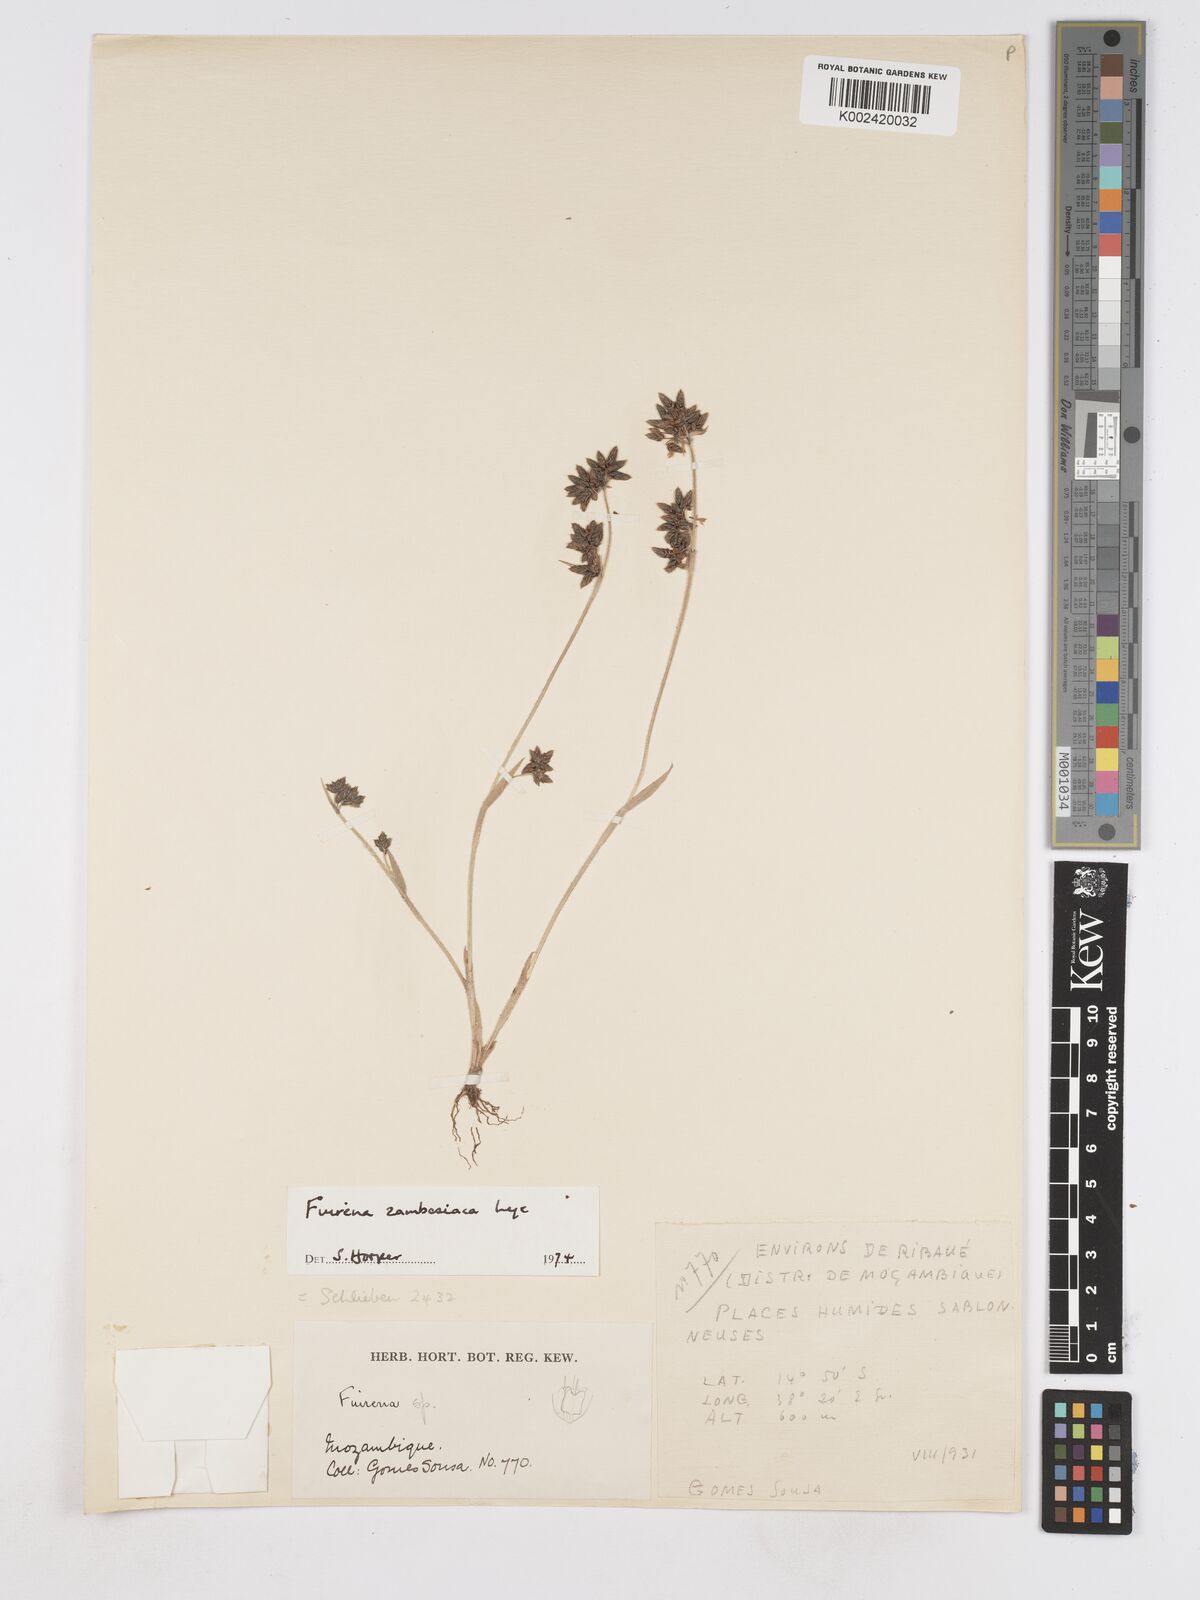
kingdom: Plantae
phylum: Tracheophyta
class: Liliopsida
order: Poales
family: Cyperaceae
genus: Fuirena
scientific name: Fuirena zambesiaca
